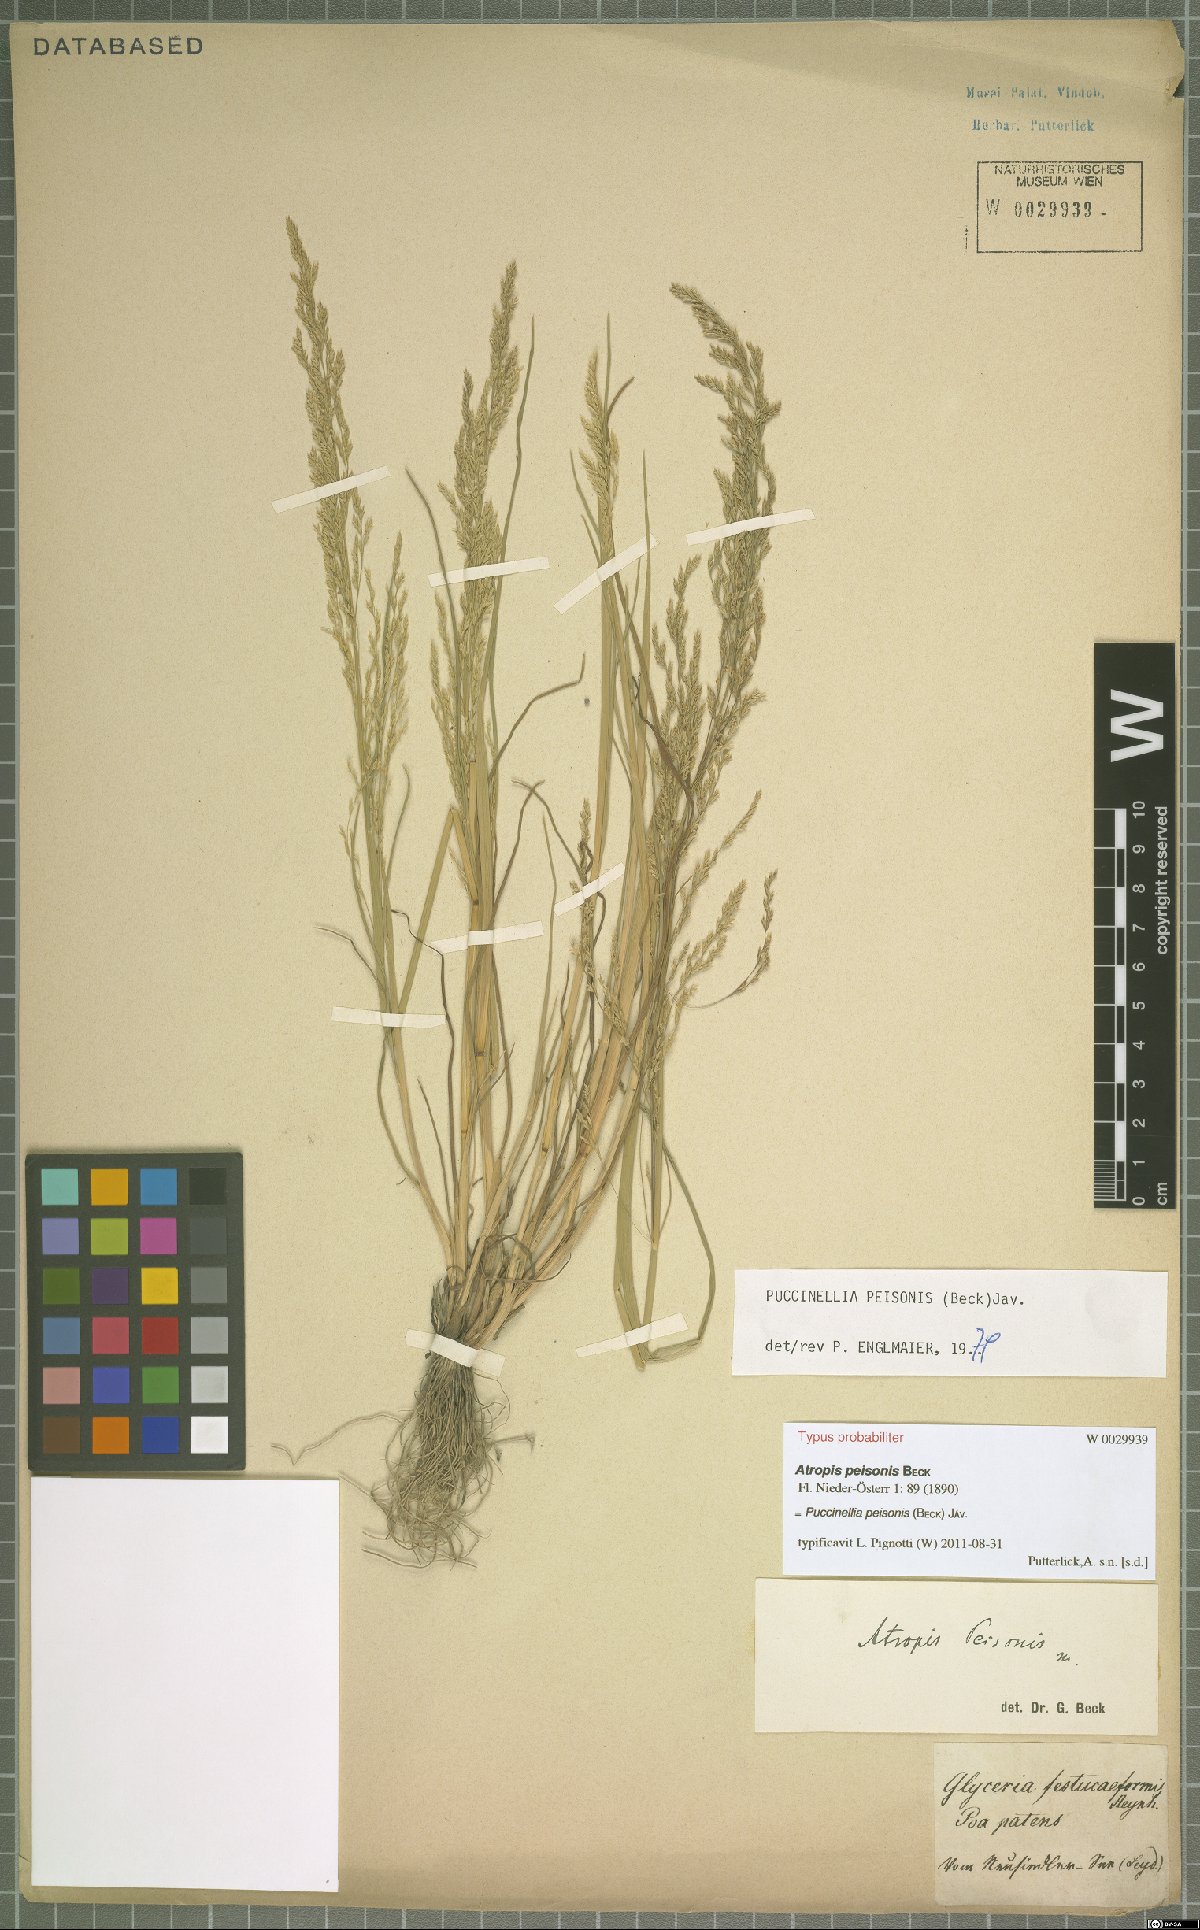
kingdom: Plantae
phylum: Tracheophyta
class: Liliopsida
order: Poales
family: Poaceae
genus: Puccinellia
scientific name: Puccinellia intermedia
